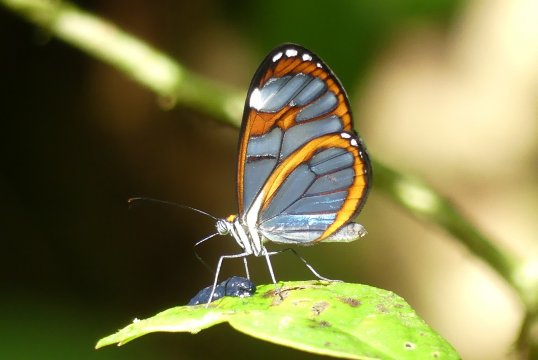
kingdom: Animalia
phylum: Arthropoda
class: Insecta
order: Lepidoptera
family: Nymphalidae
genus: Ithomia
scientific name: Ithomia diasia
